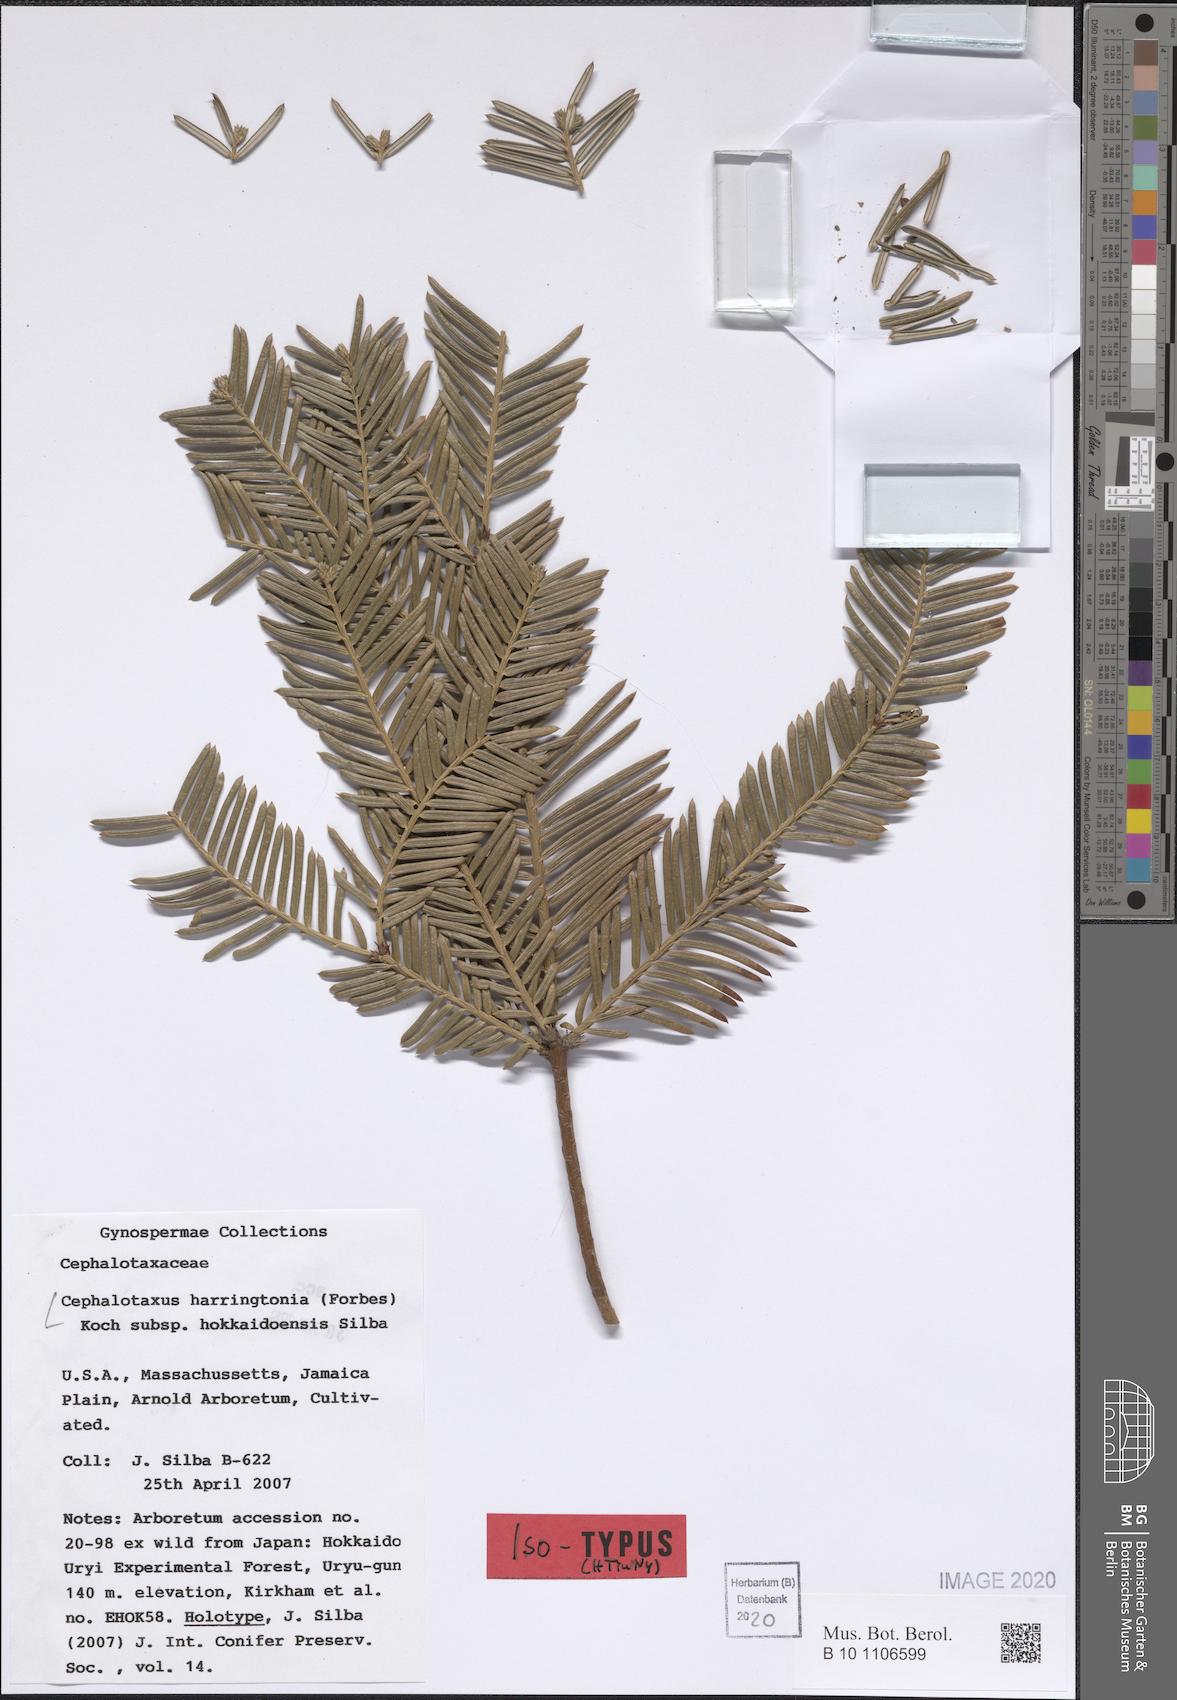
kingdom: Plantae
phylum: Tracheophyta
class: Pinopsida
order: Pinales
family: Cephalotaxaceae
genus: Cephalotaxus
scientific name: Cephalotaxus harringtonii
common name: Harrington's plum yew
